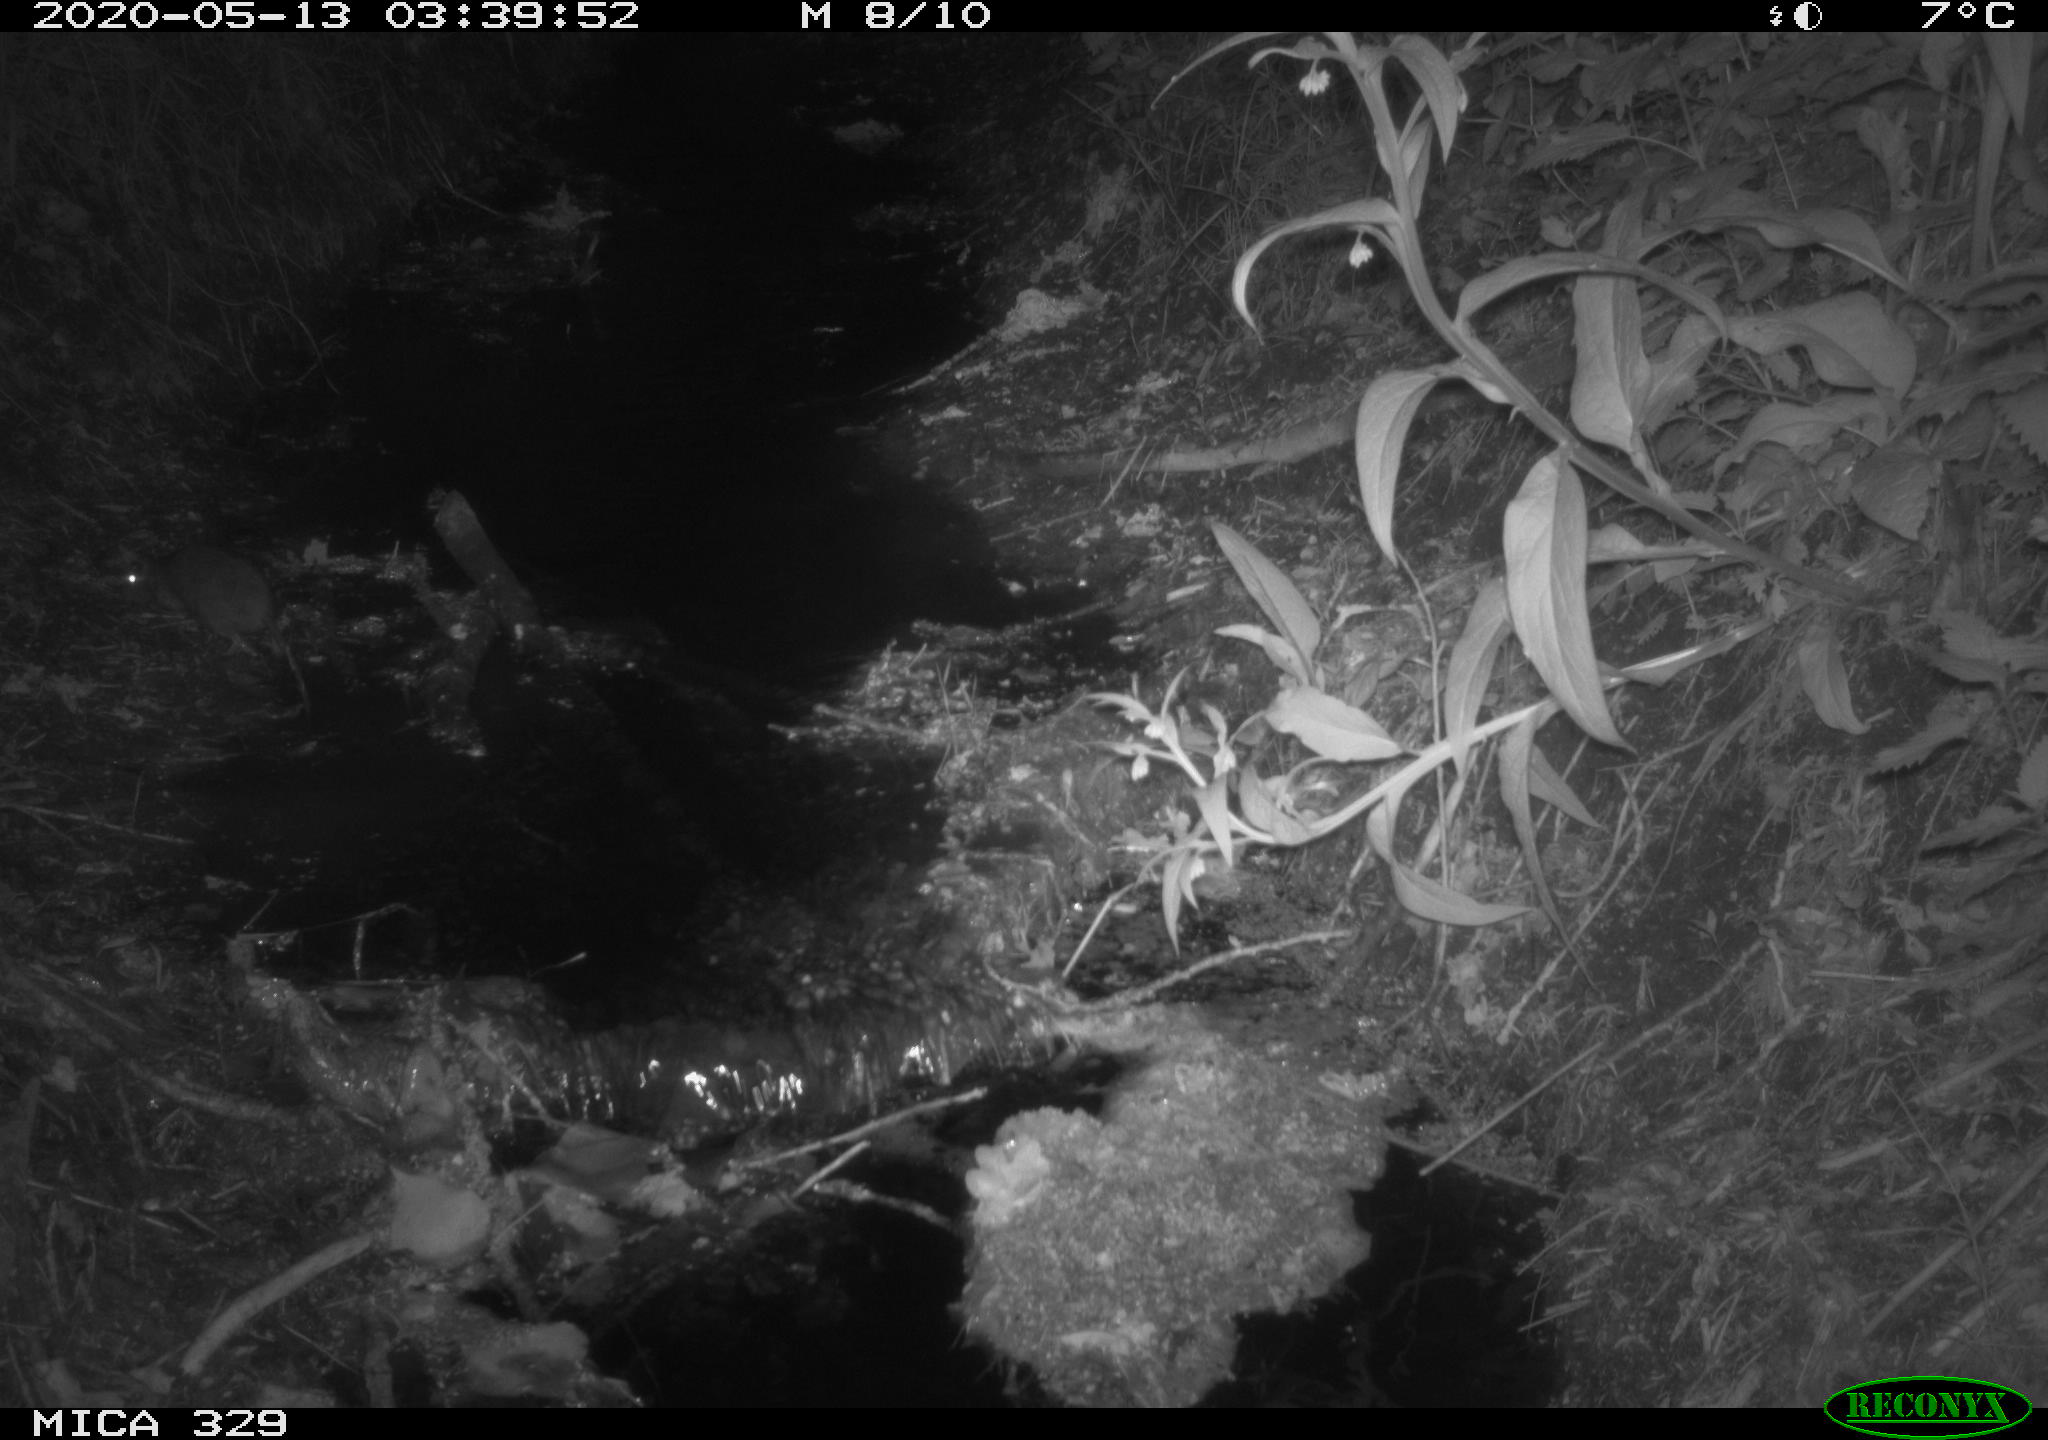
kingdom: Animalia
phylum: Chordata
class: Mammalia
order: Rodentia
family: Muridae
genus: Rattus
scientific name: Rattus norvegicus
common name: Brown rat
